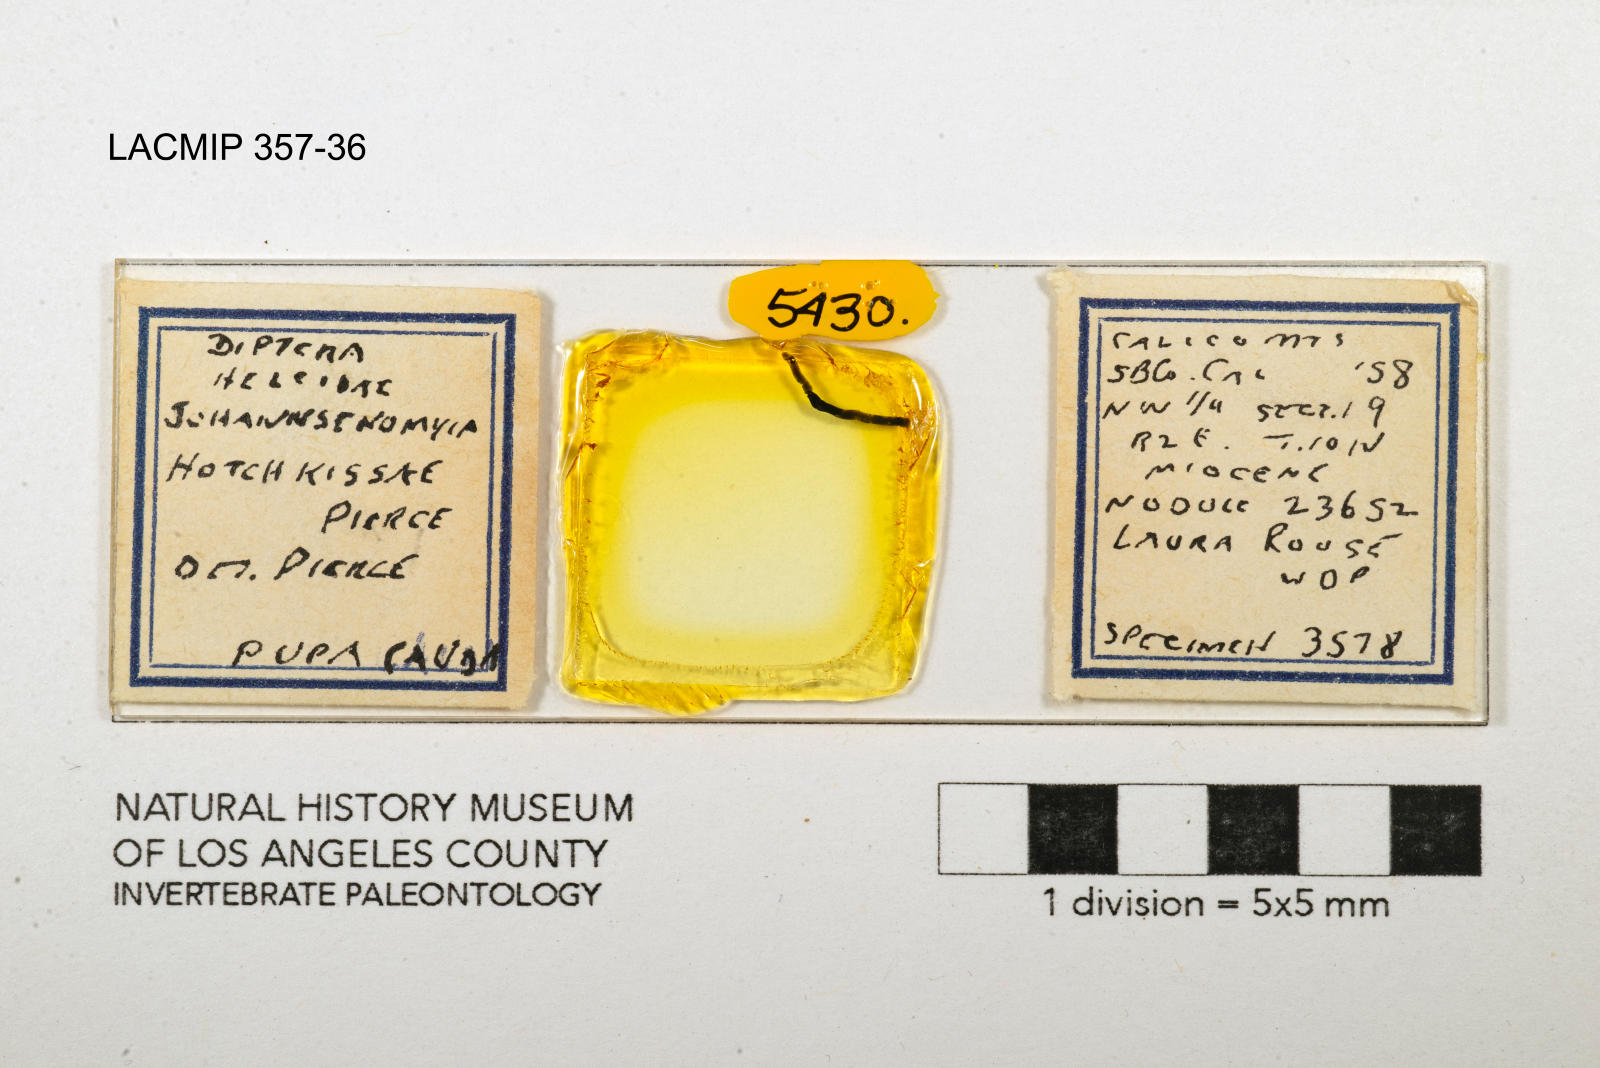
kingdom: Animalia
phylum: Arthropoda
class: Insecta
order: Diptera
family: Ceratopogonidae
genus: Johannsenomyia
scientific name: Johannsenomyia
